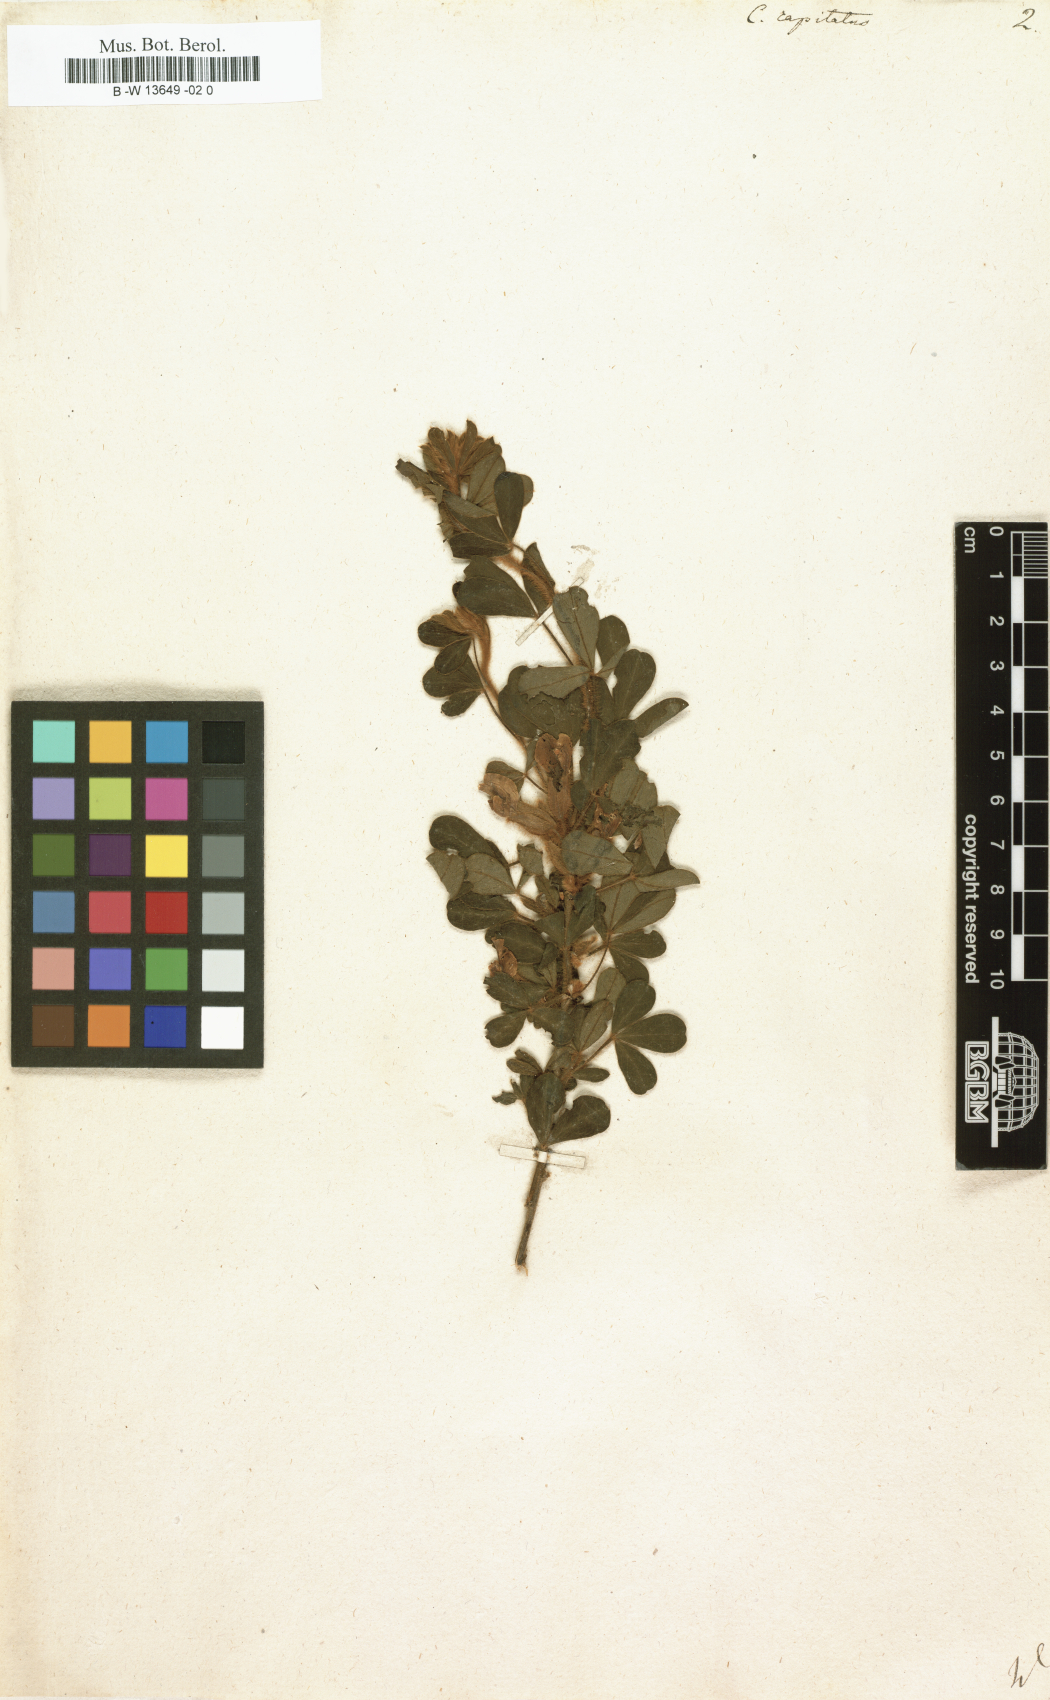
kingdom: Plantae
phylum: Tracheophyta
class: Magnoliopsida
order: Fabales
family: Fabaceae
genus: Chamaecytisus
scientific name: Chamaecytisus hirsutus
